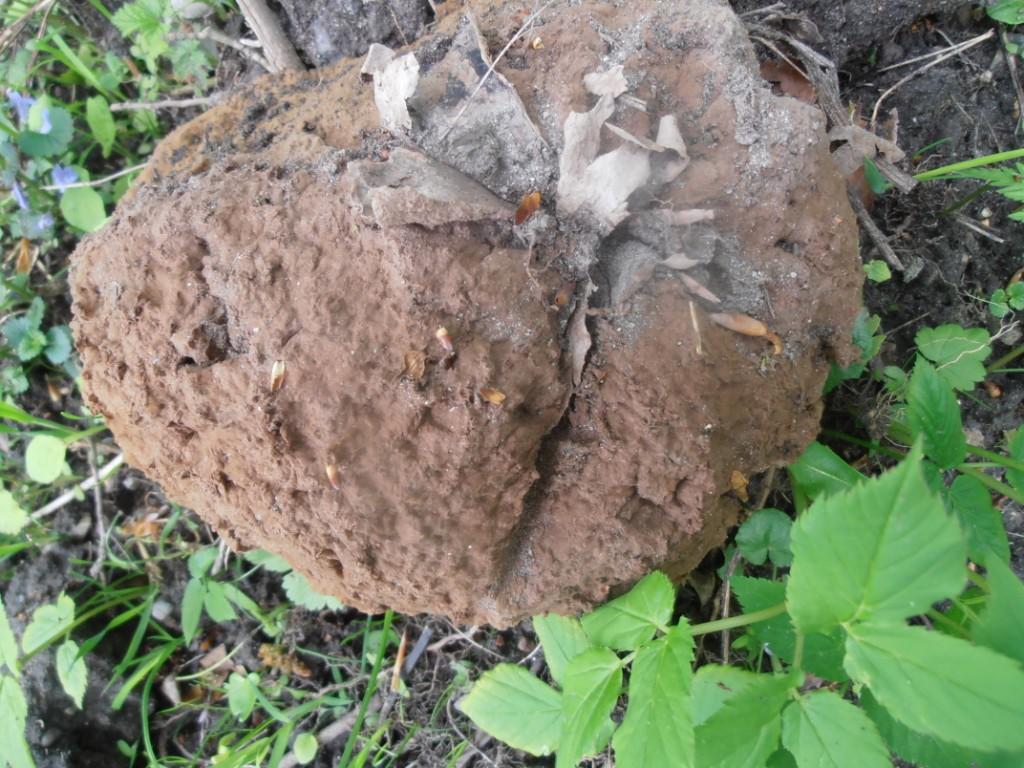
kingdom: Fungi
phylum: Basidiomycota
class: Agaricomycetes
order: Agaricales
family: Lycoperdaceae
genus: Calvatia
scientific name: Calvatia gigantea
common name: kæmpestøvbold
